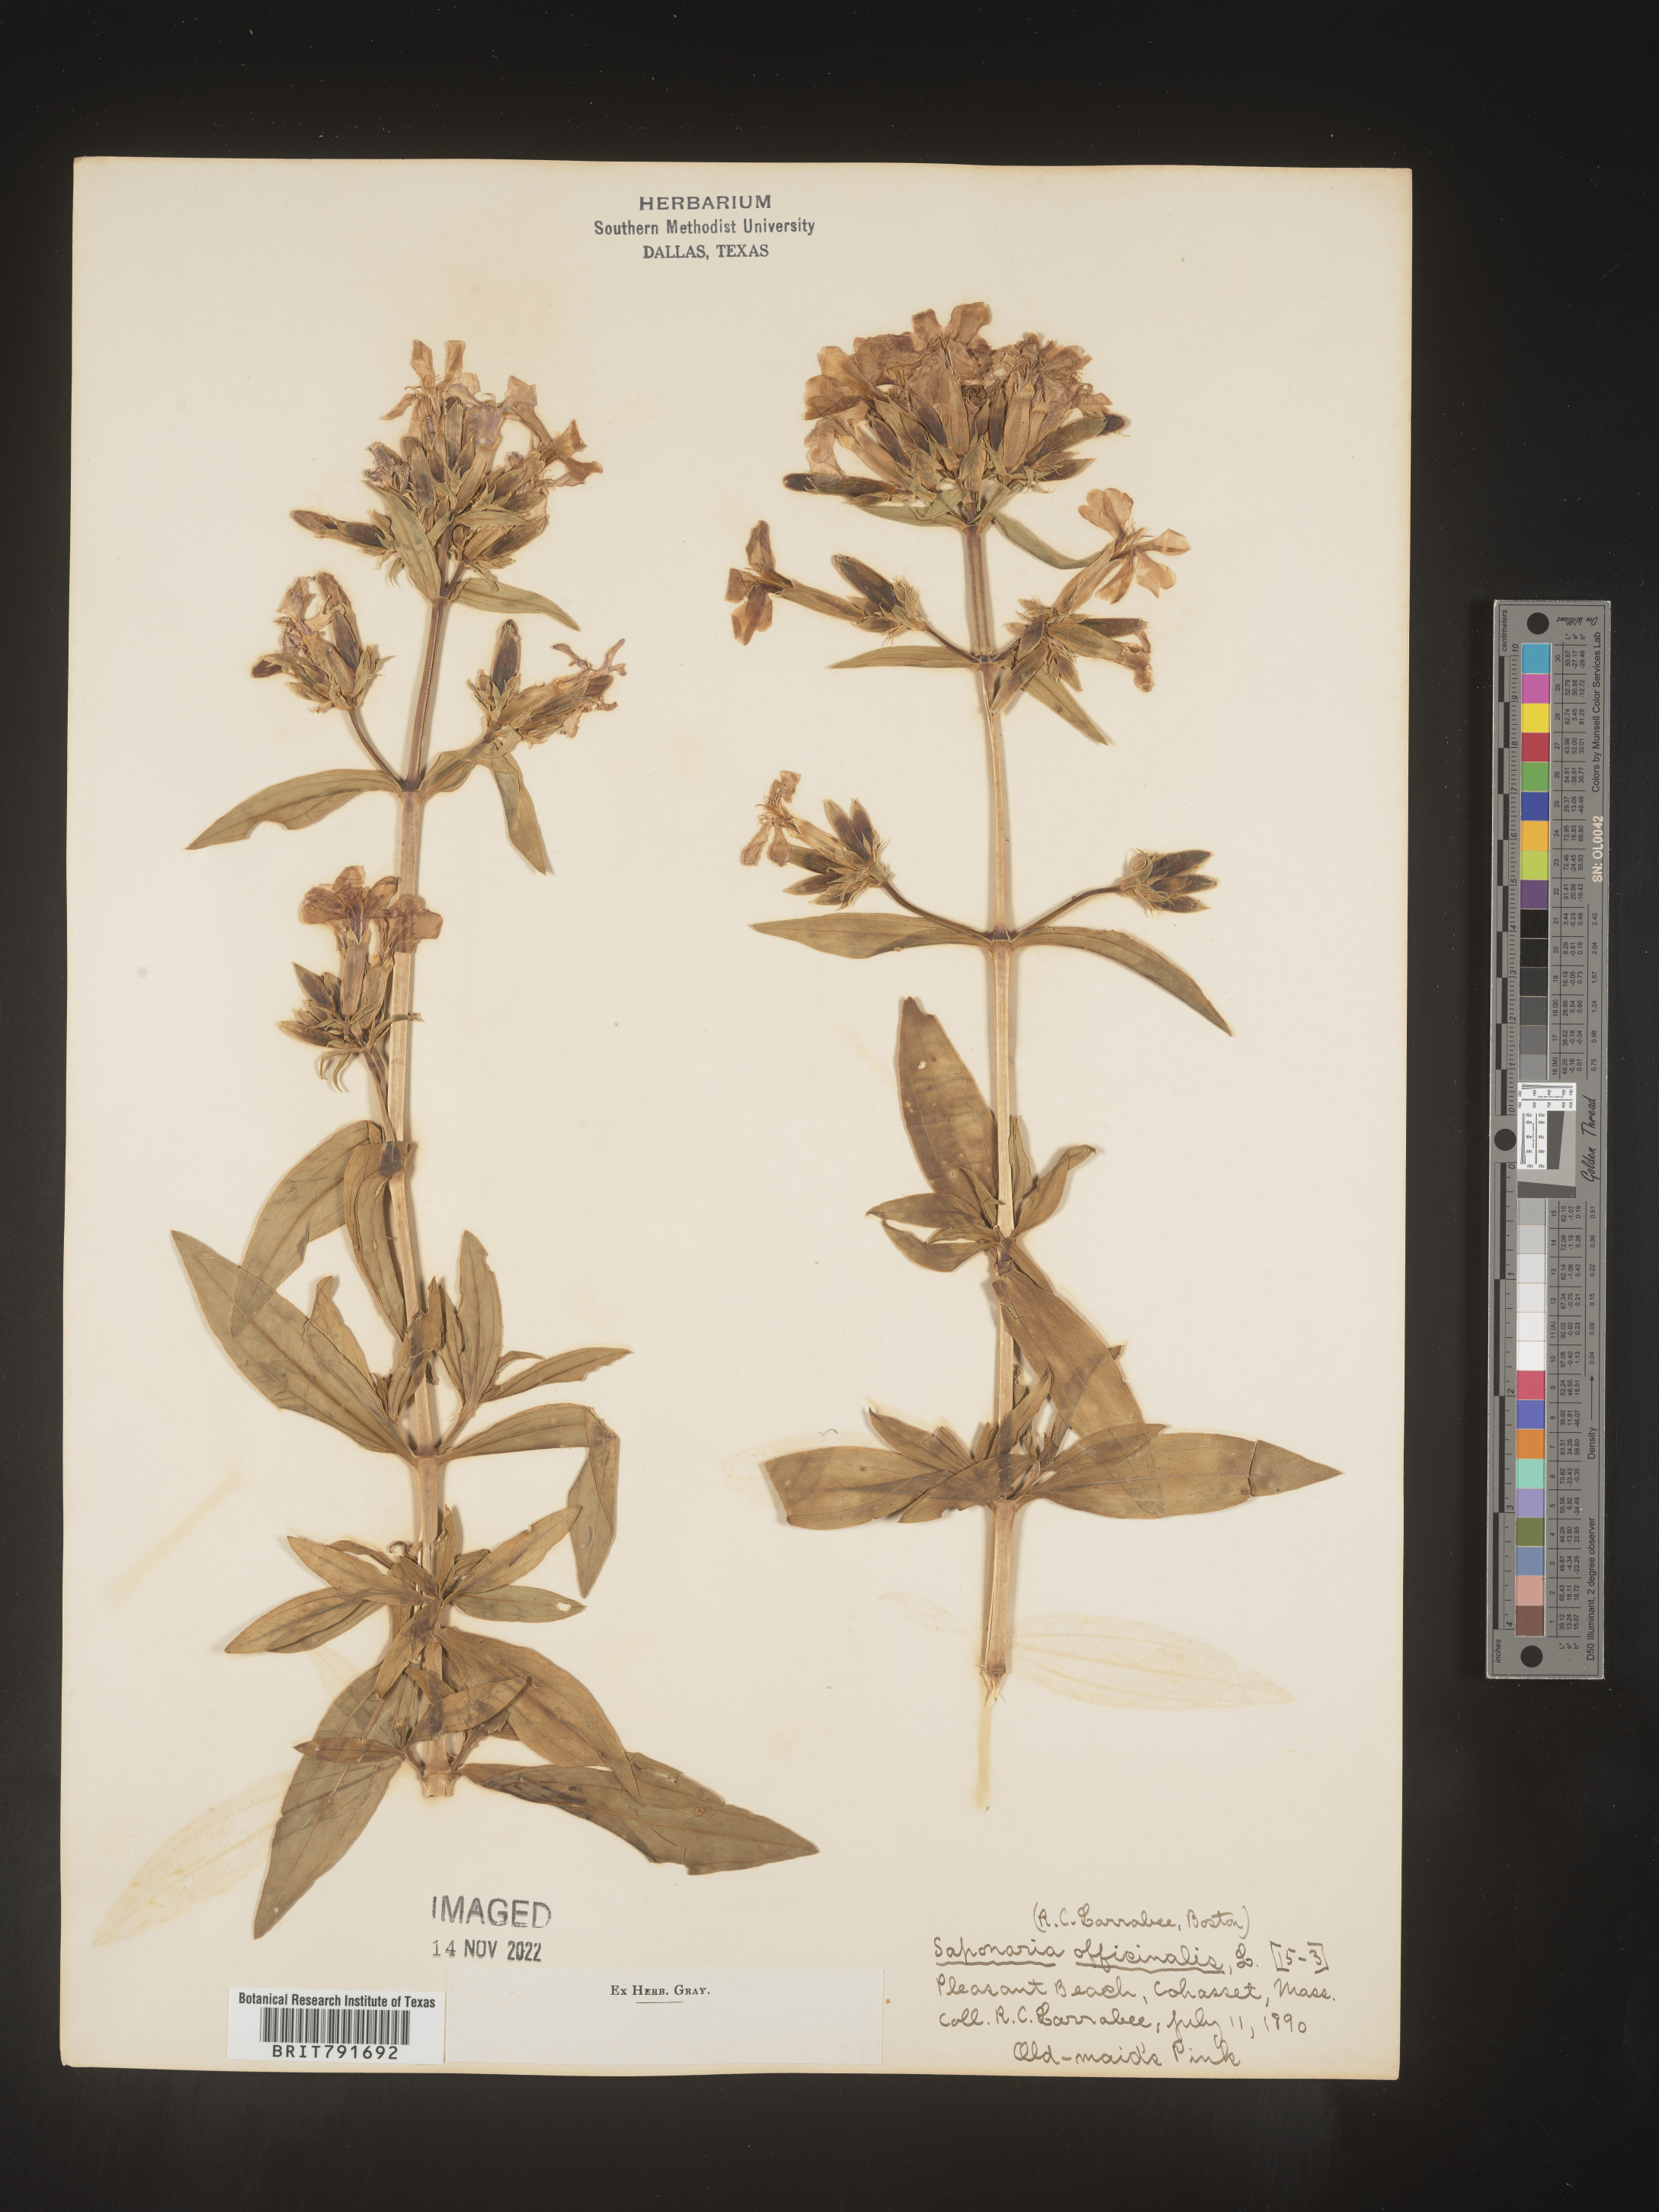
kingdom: Plantae
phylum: Tracheophyta
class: Magnoliopsida
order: Caryophyllales
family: Caryophyllaceae
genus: Saponaria
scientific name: Saponaria officinalis
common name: Soapwort
